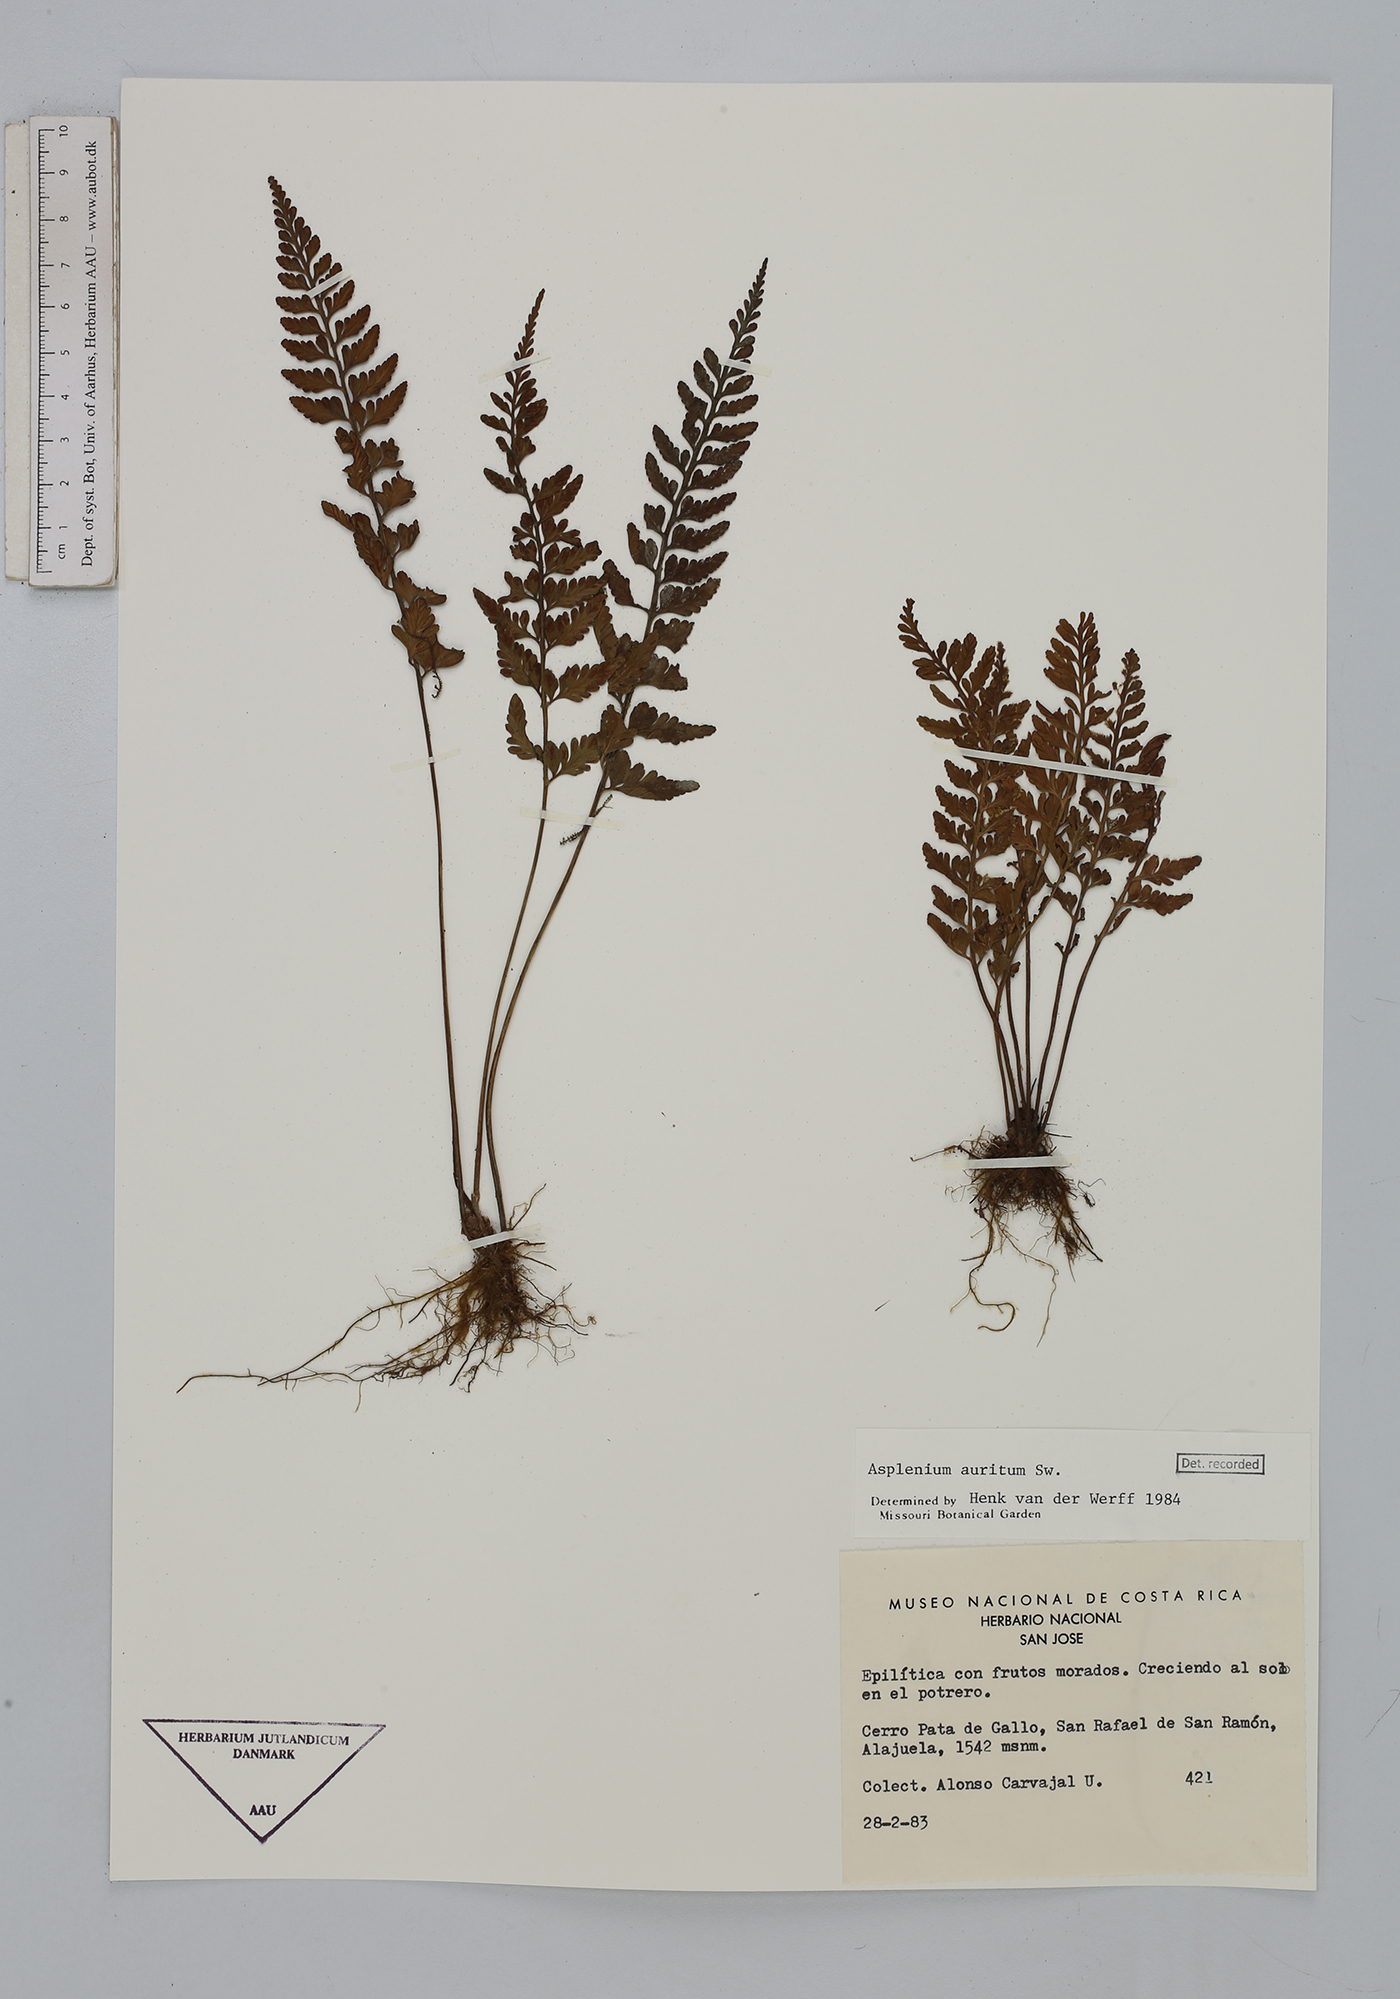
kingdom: Plantae
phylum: Tracheophyta
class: Polypodiopsida
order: Polypodiales
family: Aspleniaceae
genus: Asplenium
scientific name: Asplenium auritum
